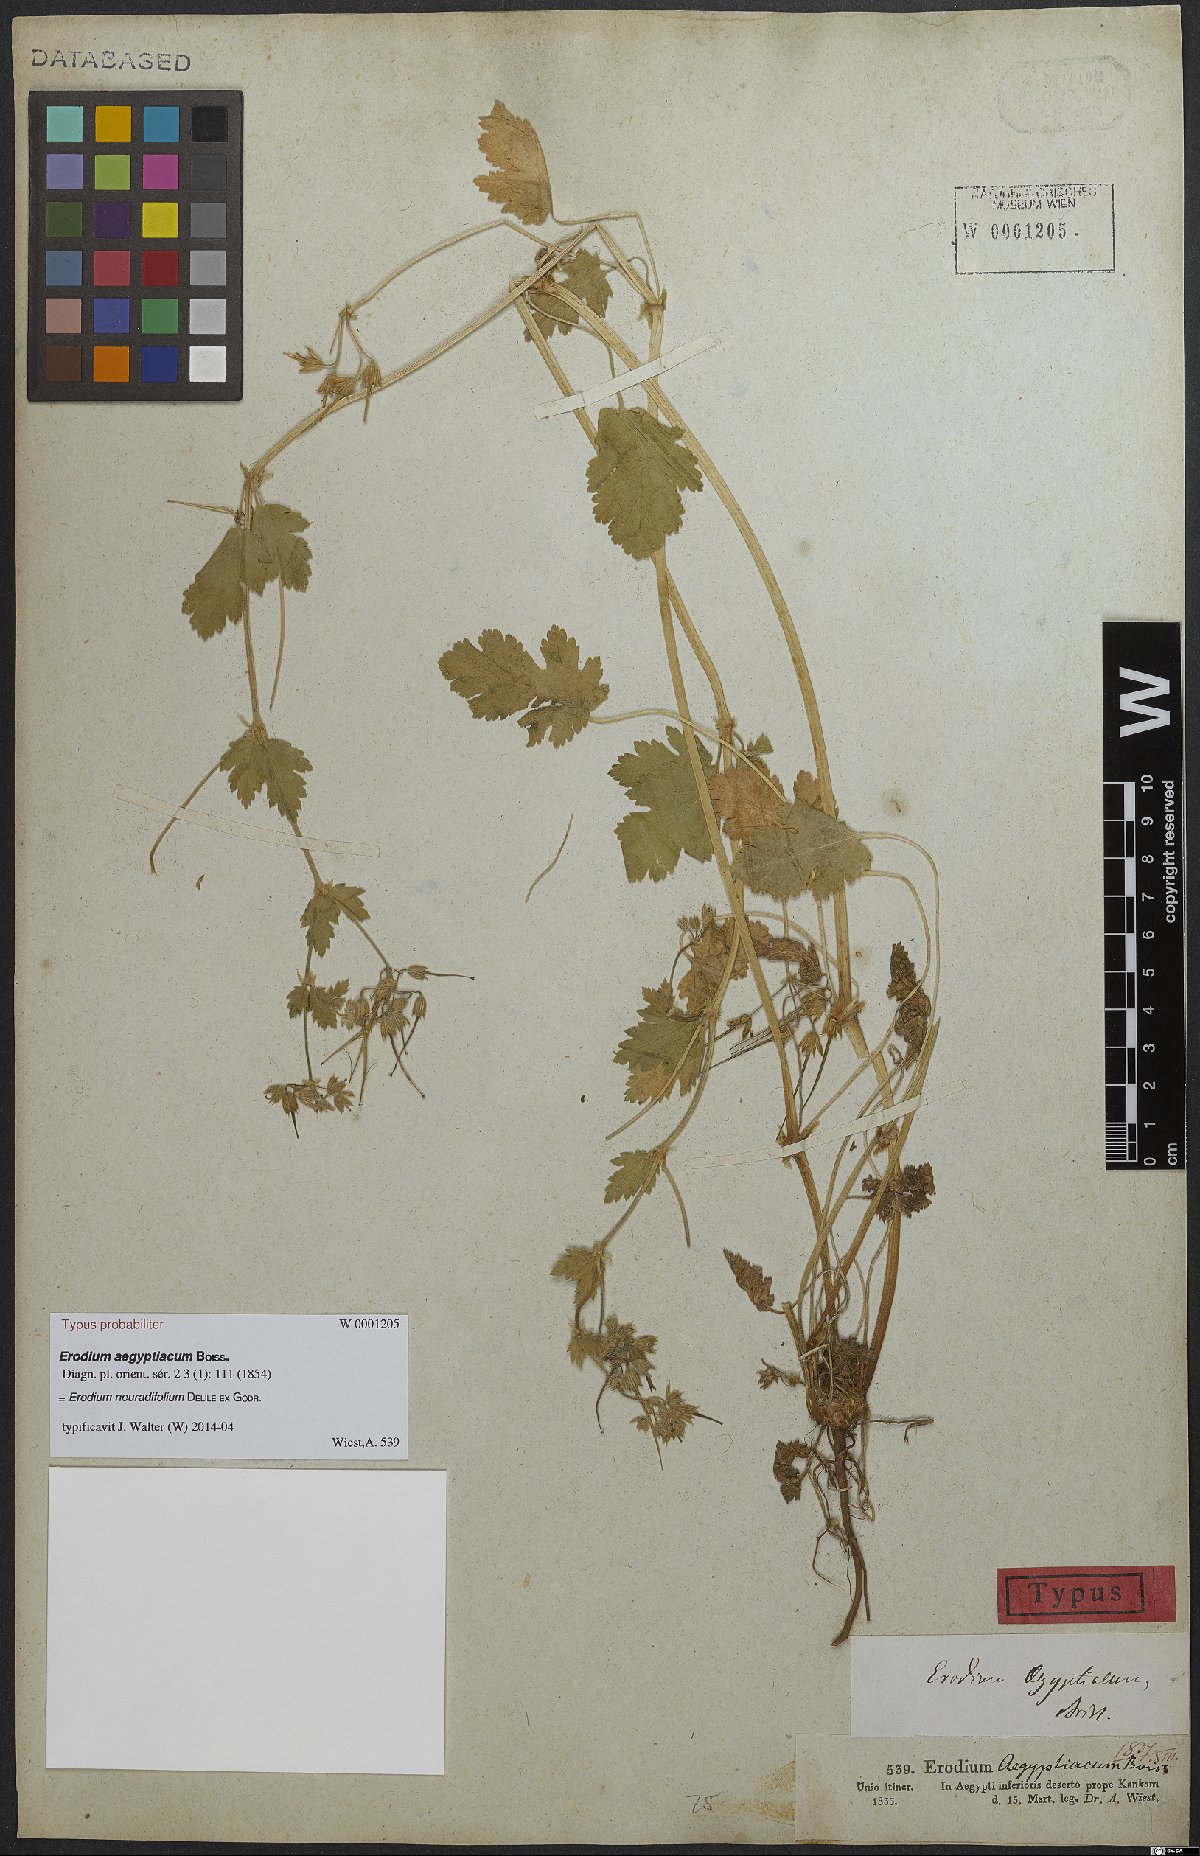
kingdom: Plantae
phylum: Tracheophyta
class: Magnoliopsida
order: Geraniales
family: Geraniaceae
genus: Erodium
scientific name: Erodium neuradifolium
